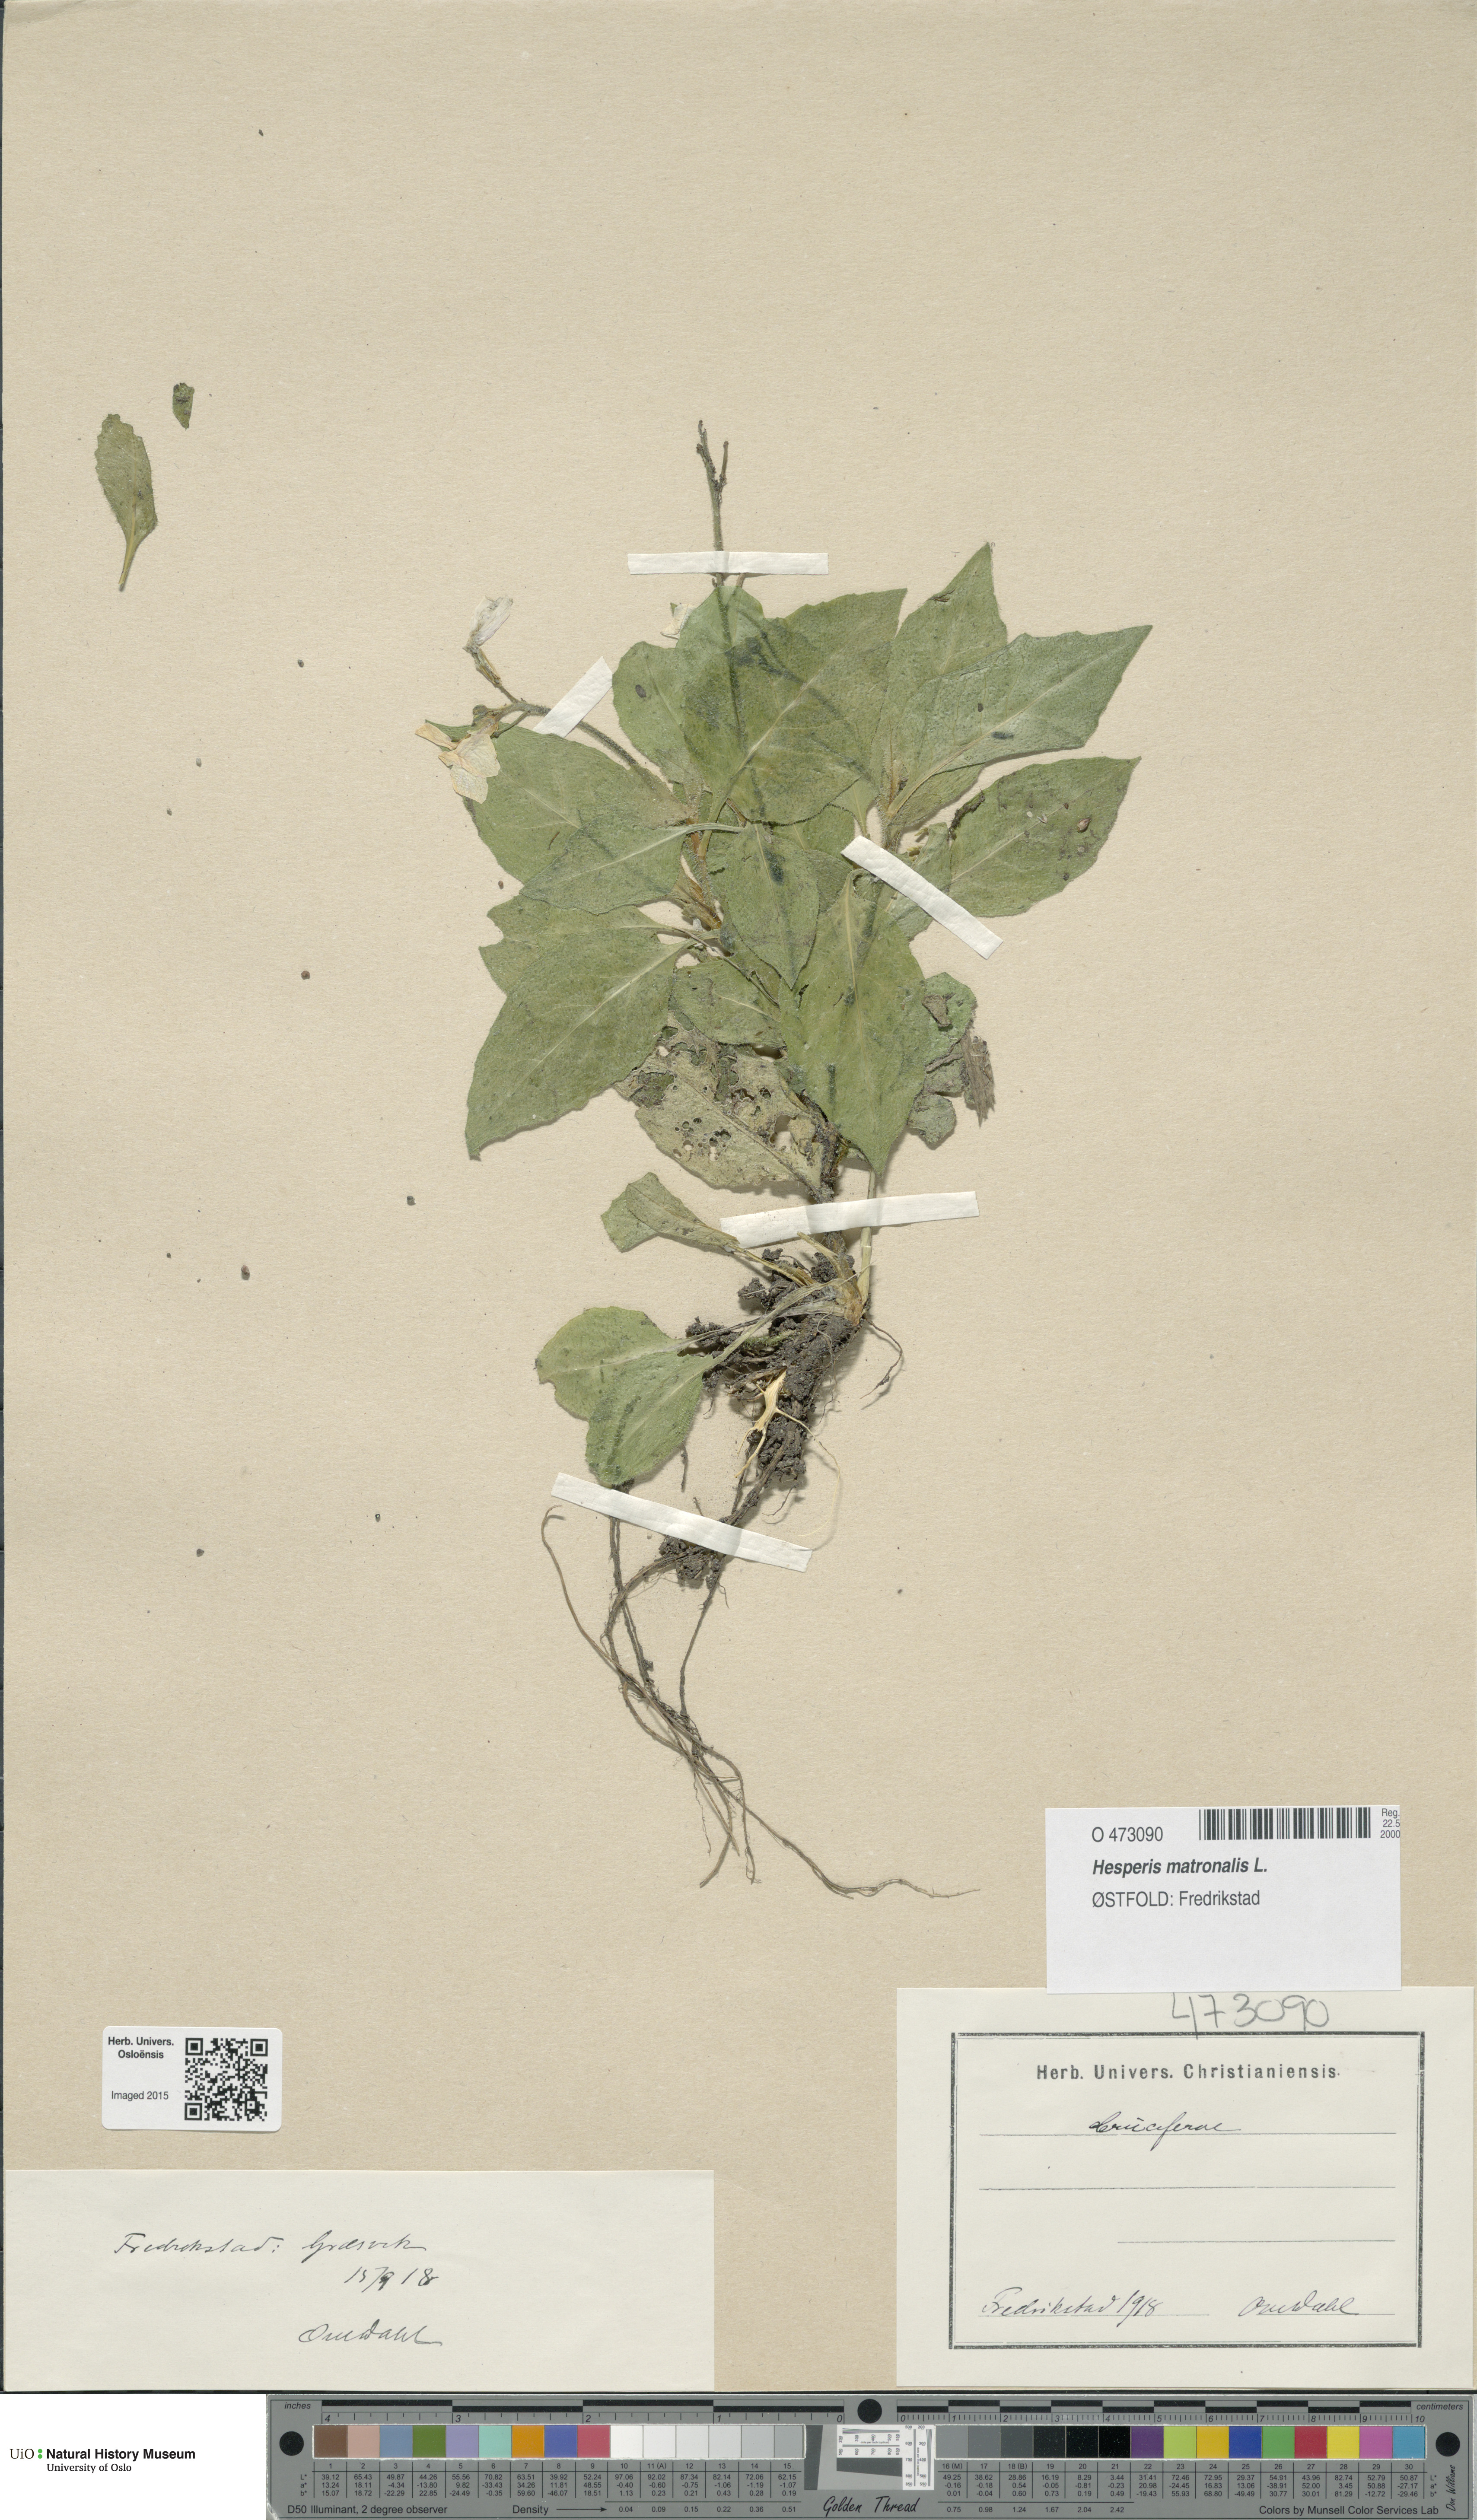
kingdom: Plantae
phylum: Tracheophyta
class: Magnoliopsida
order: Brassicales
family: Brassicaceae
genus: Hesperis
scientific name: Hesperis matronalis
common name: Dame's-violet
